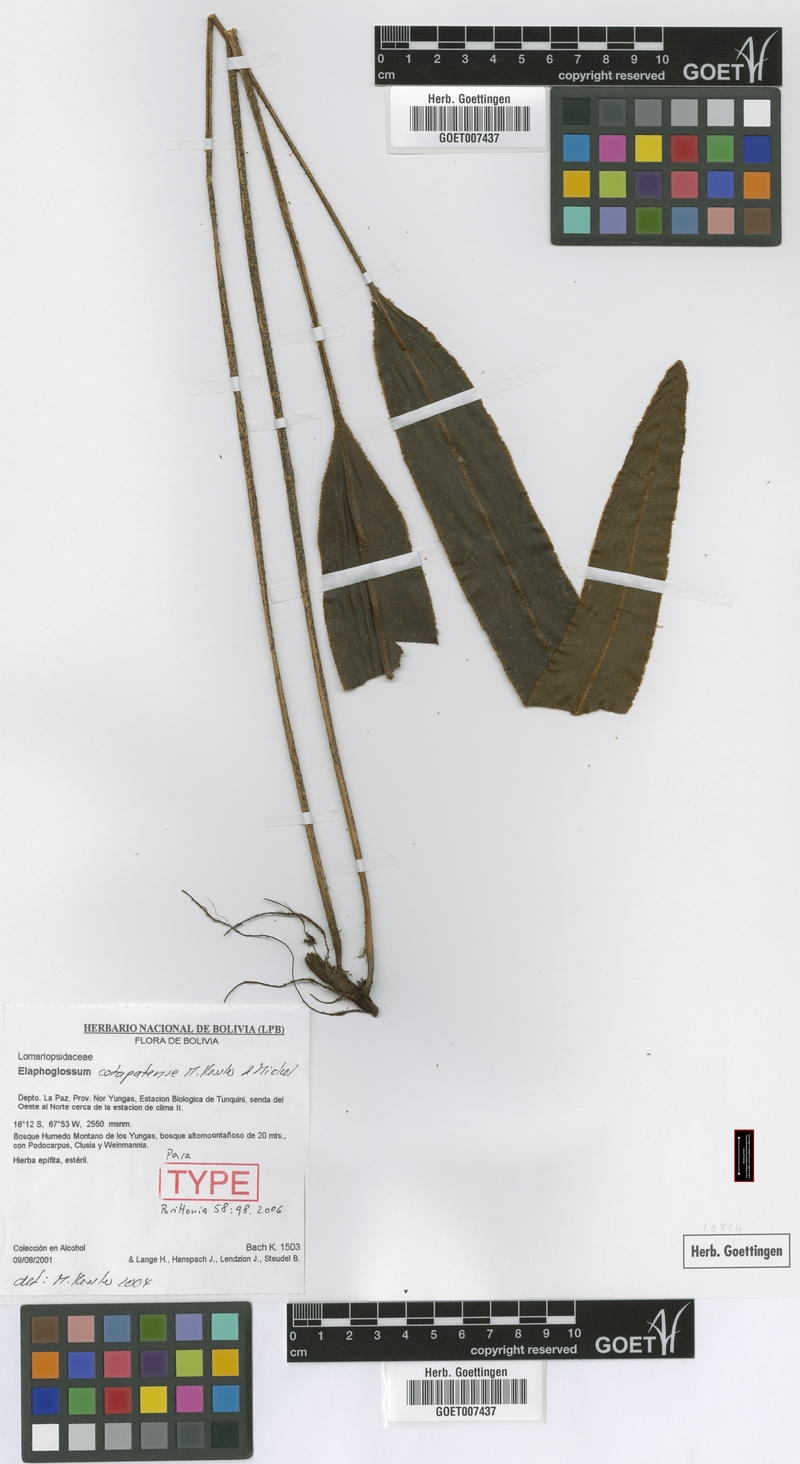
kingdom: Plantae
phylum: Tracheophyta
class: Polypodiopsida
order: Polypodiales
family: Dryopteridaceae
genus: Elaphoglossum
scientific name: Elaphoglossum cotapatense
